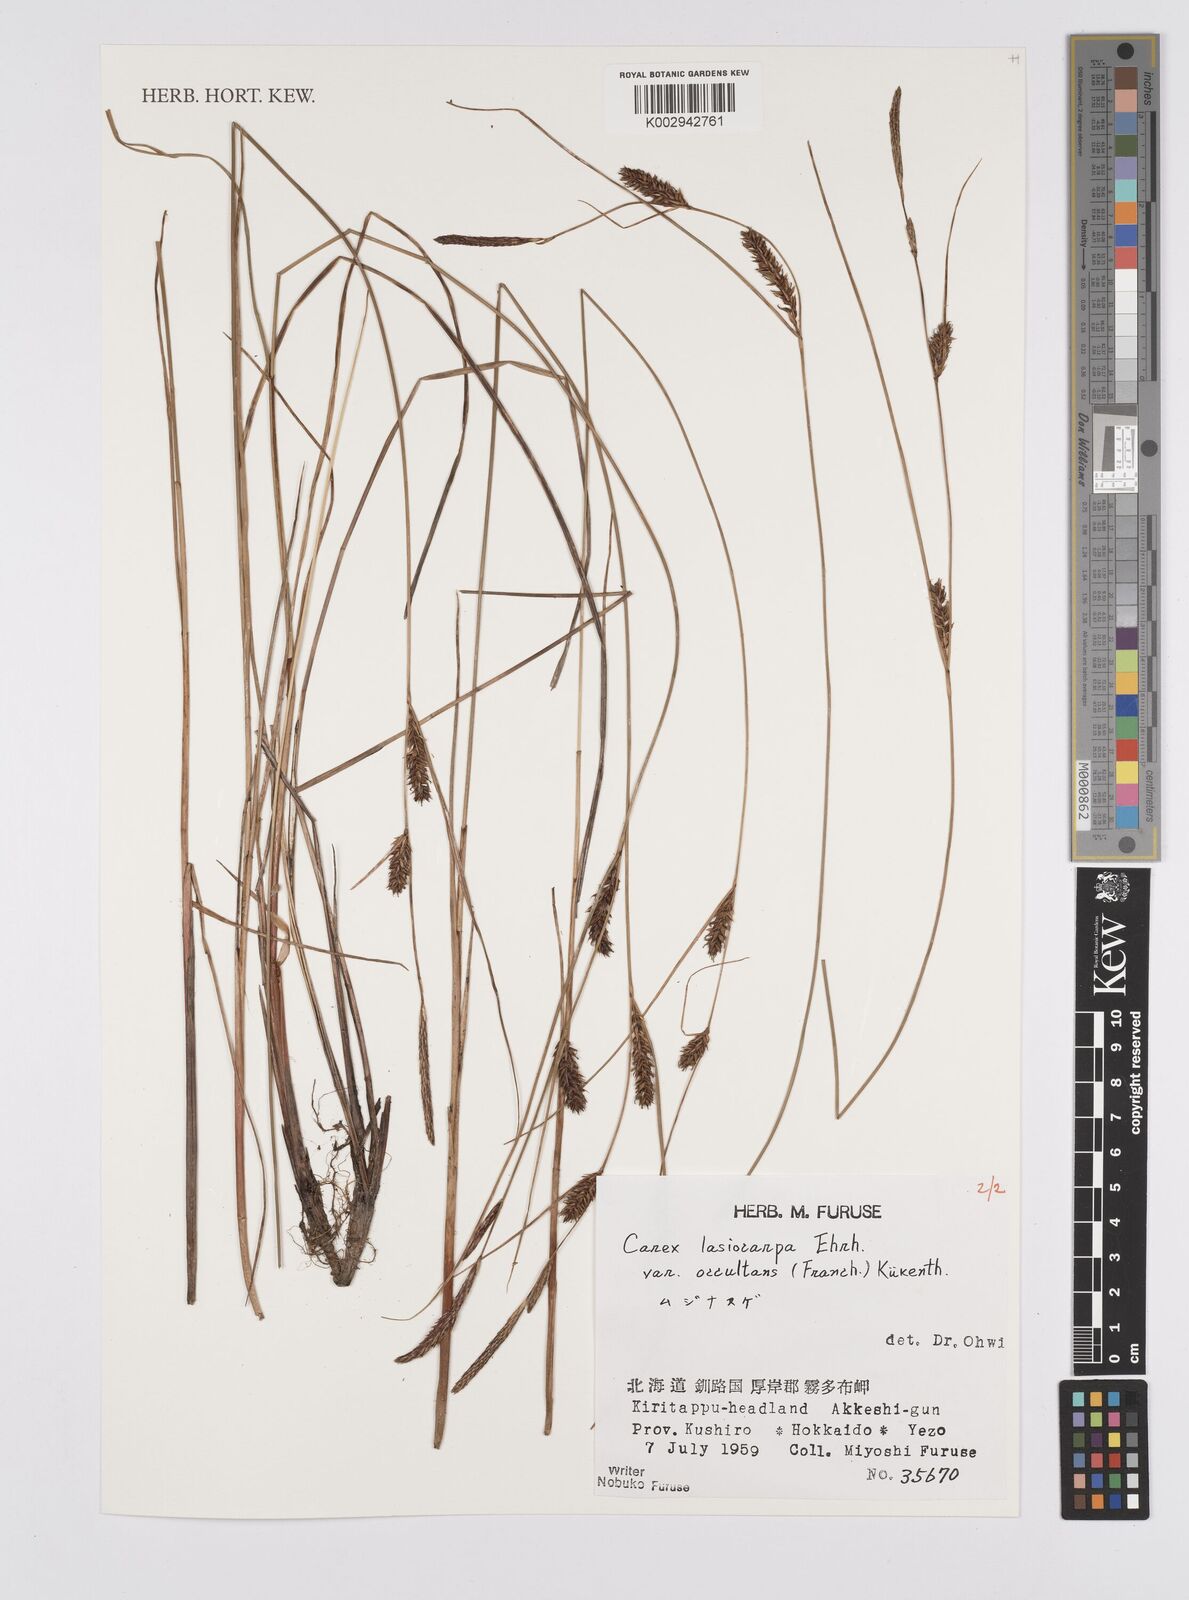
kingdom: Plantae
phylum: Tracheophyta
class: Liliopsida
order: Poales
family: Cyperaceae
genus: Carex
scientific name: Carex lasiocarpa
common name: Slender sedge
